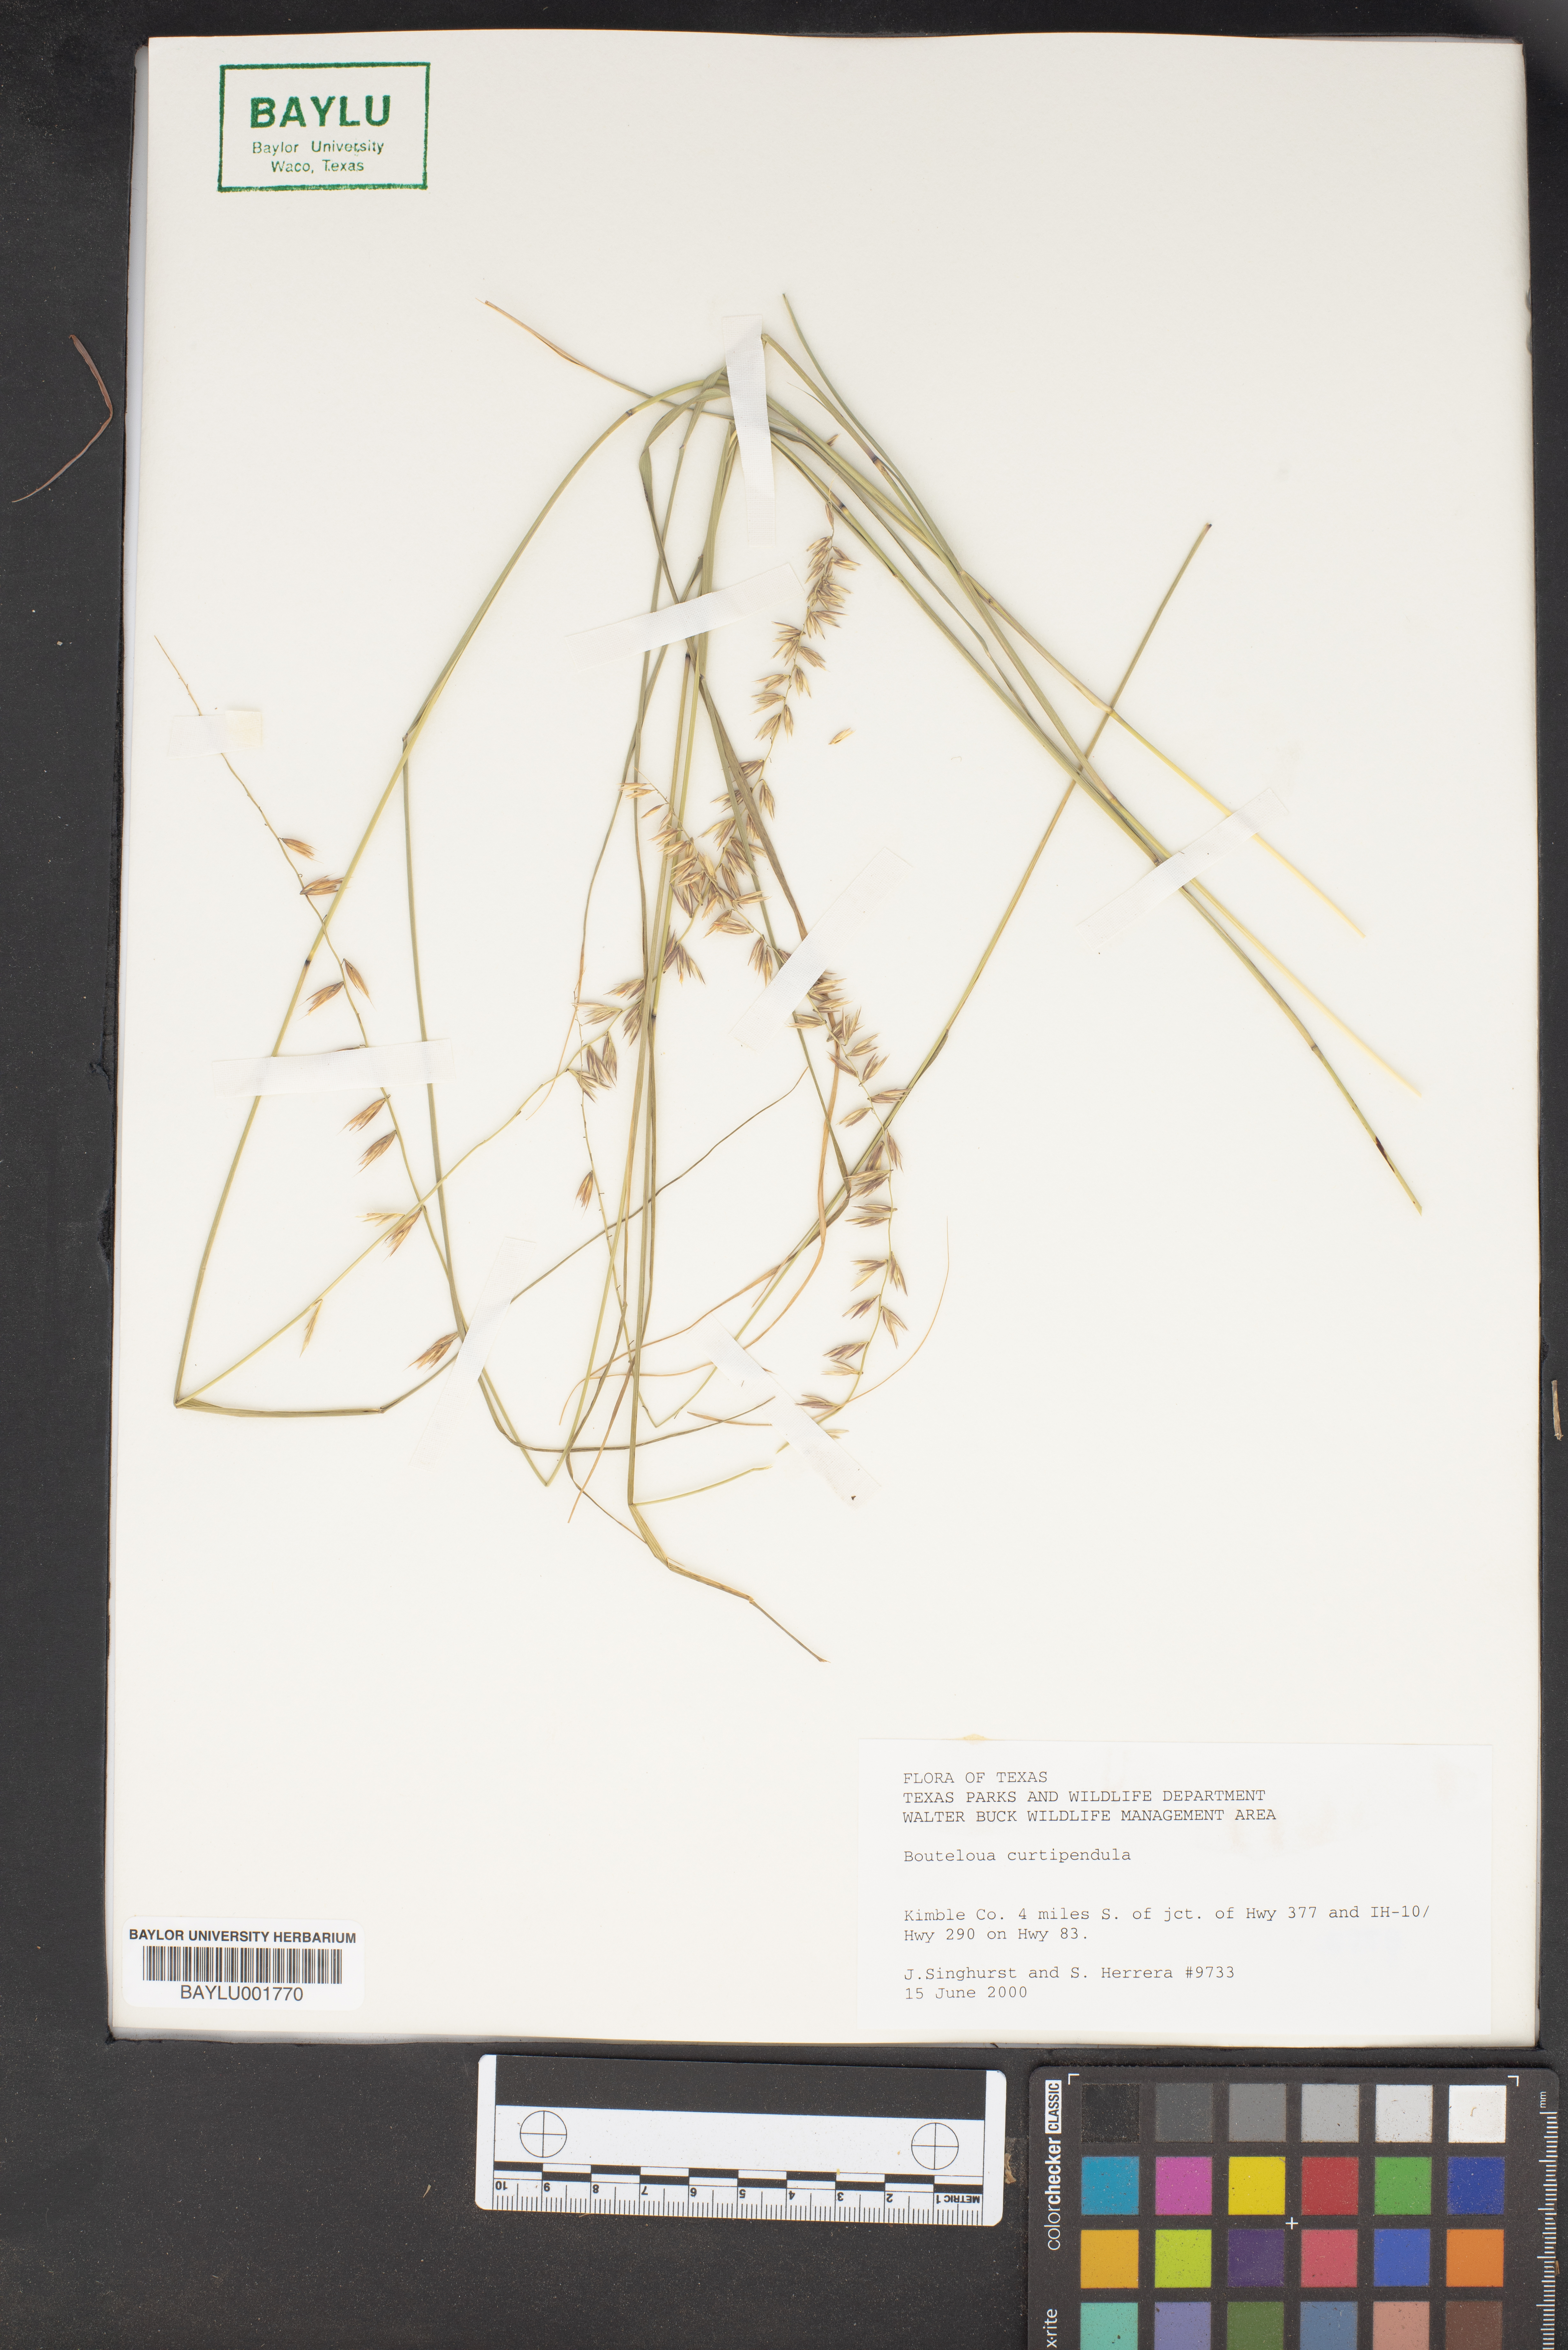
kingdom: Plantae
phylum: Tracheophyta
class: Liliopsida
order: Poales
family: Poaceae
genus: Bouteloua
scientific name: Bouteloua curtipendula
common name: Side-oats grama
